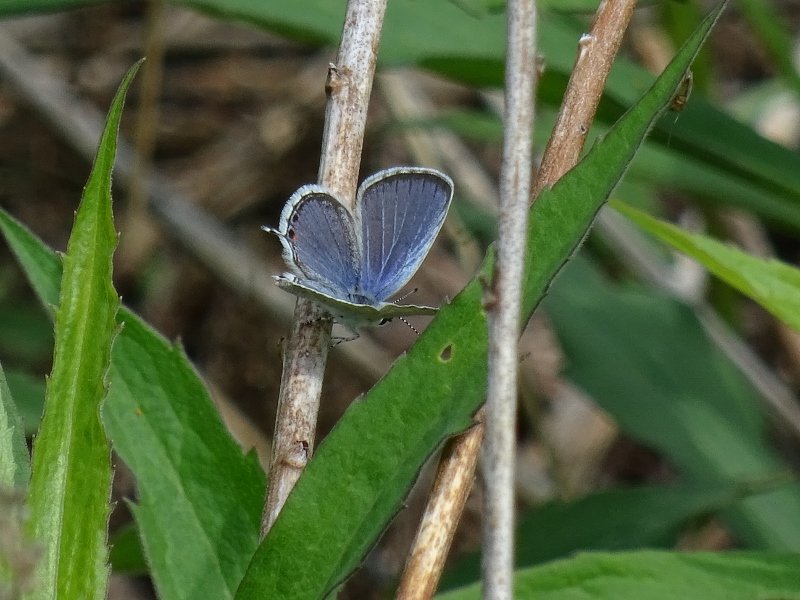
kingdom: Animalia
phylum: Arthropoda
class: Insecta
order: Lepidoptera
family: Lycaenidae
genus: Elkalyce
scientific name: Elkalyce comyntas
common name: Eastern Tailed-Blue
